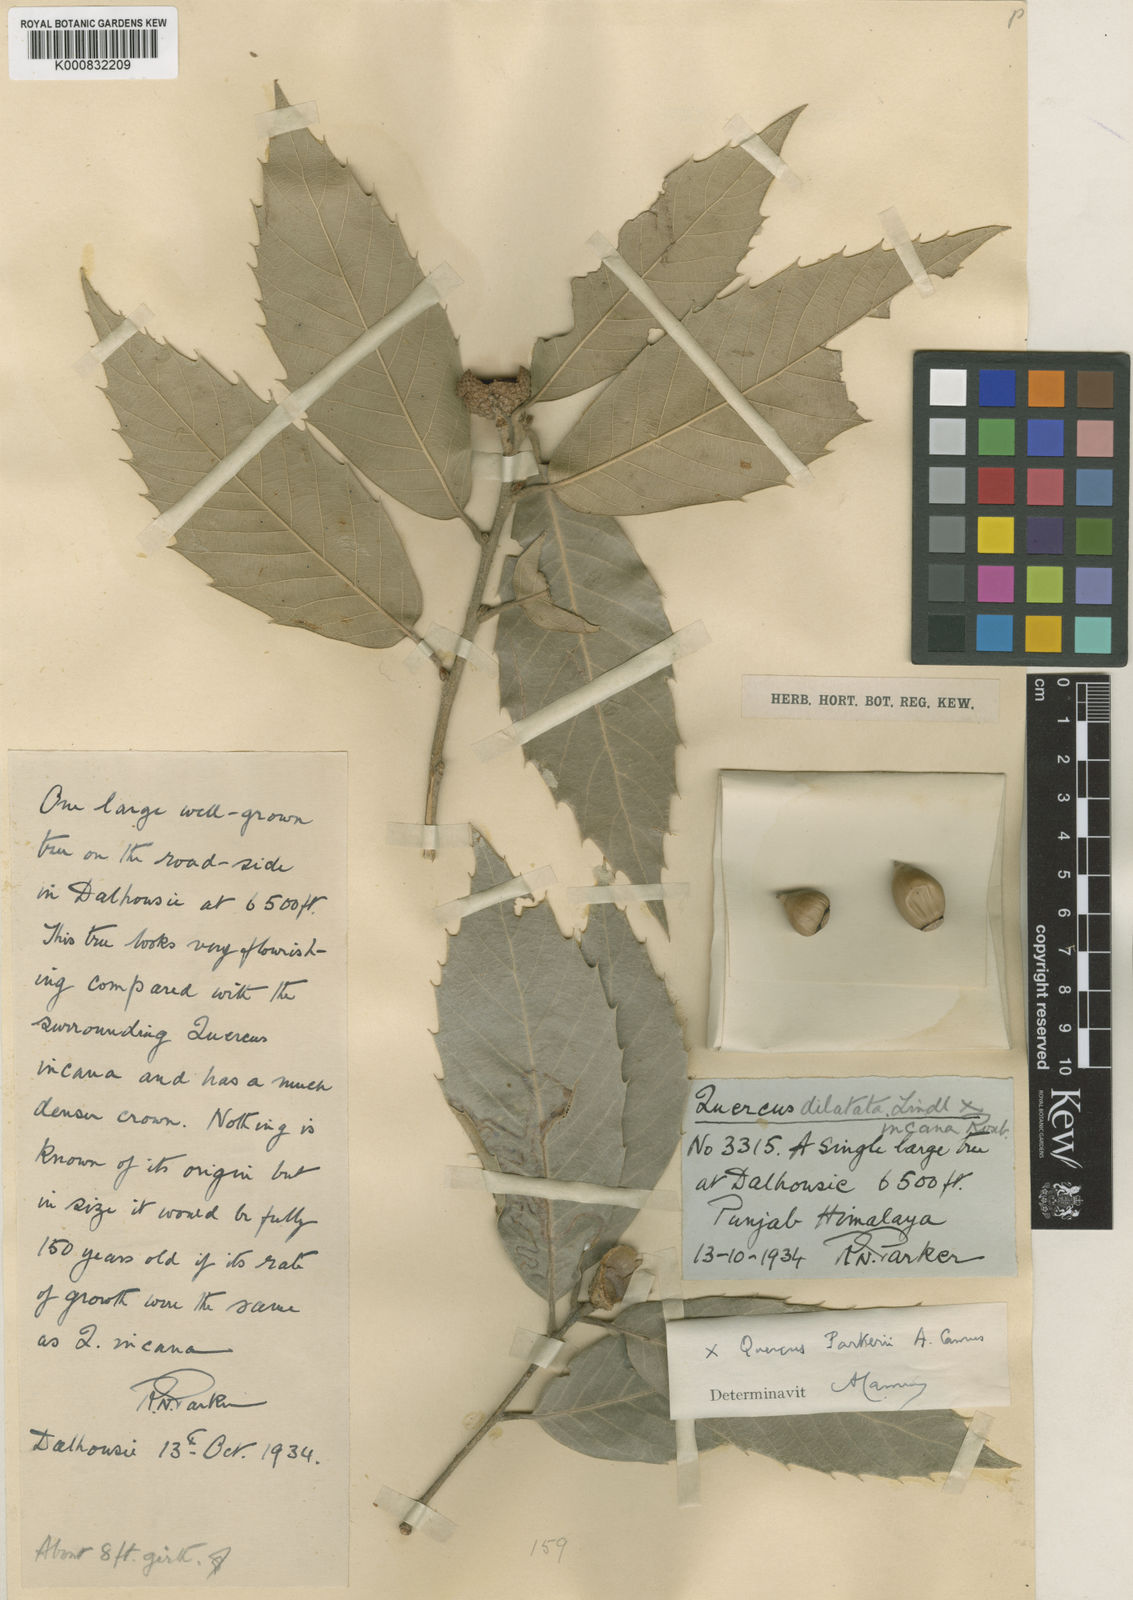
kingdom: Plantae
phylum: Tracheophyta
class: Magnoliopsida
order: Fagales
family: Fagaceae
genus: Quercus
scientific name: Quercus parkeri
